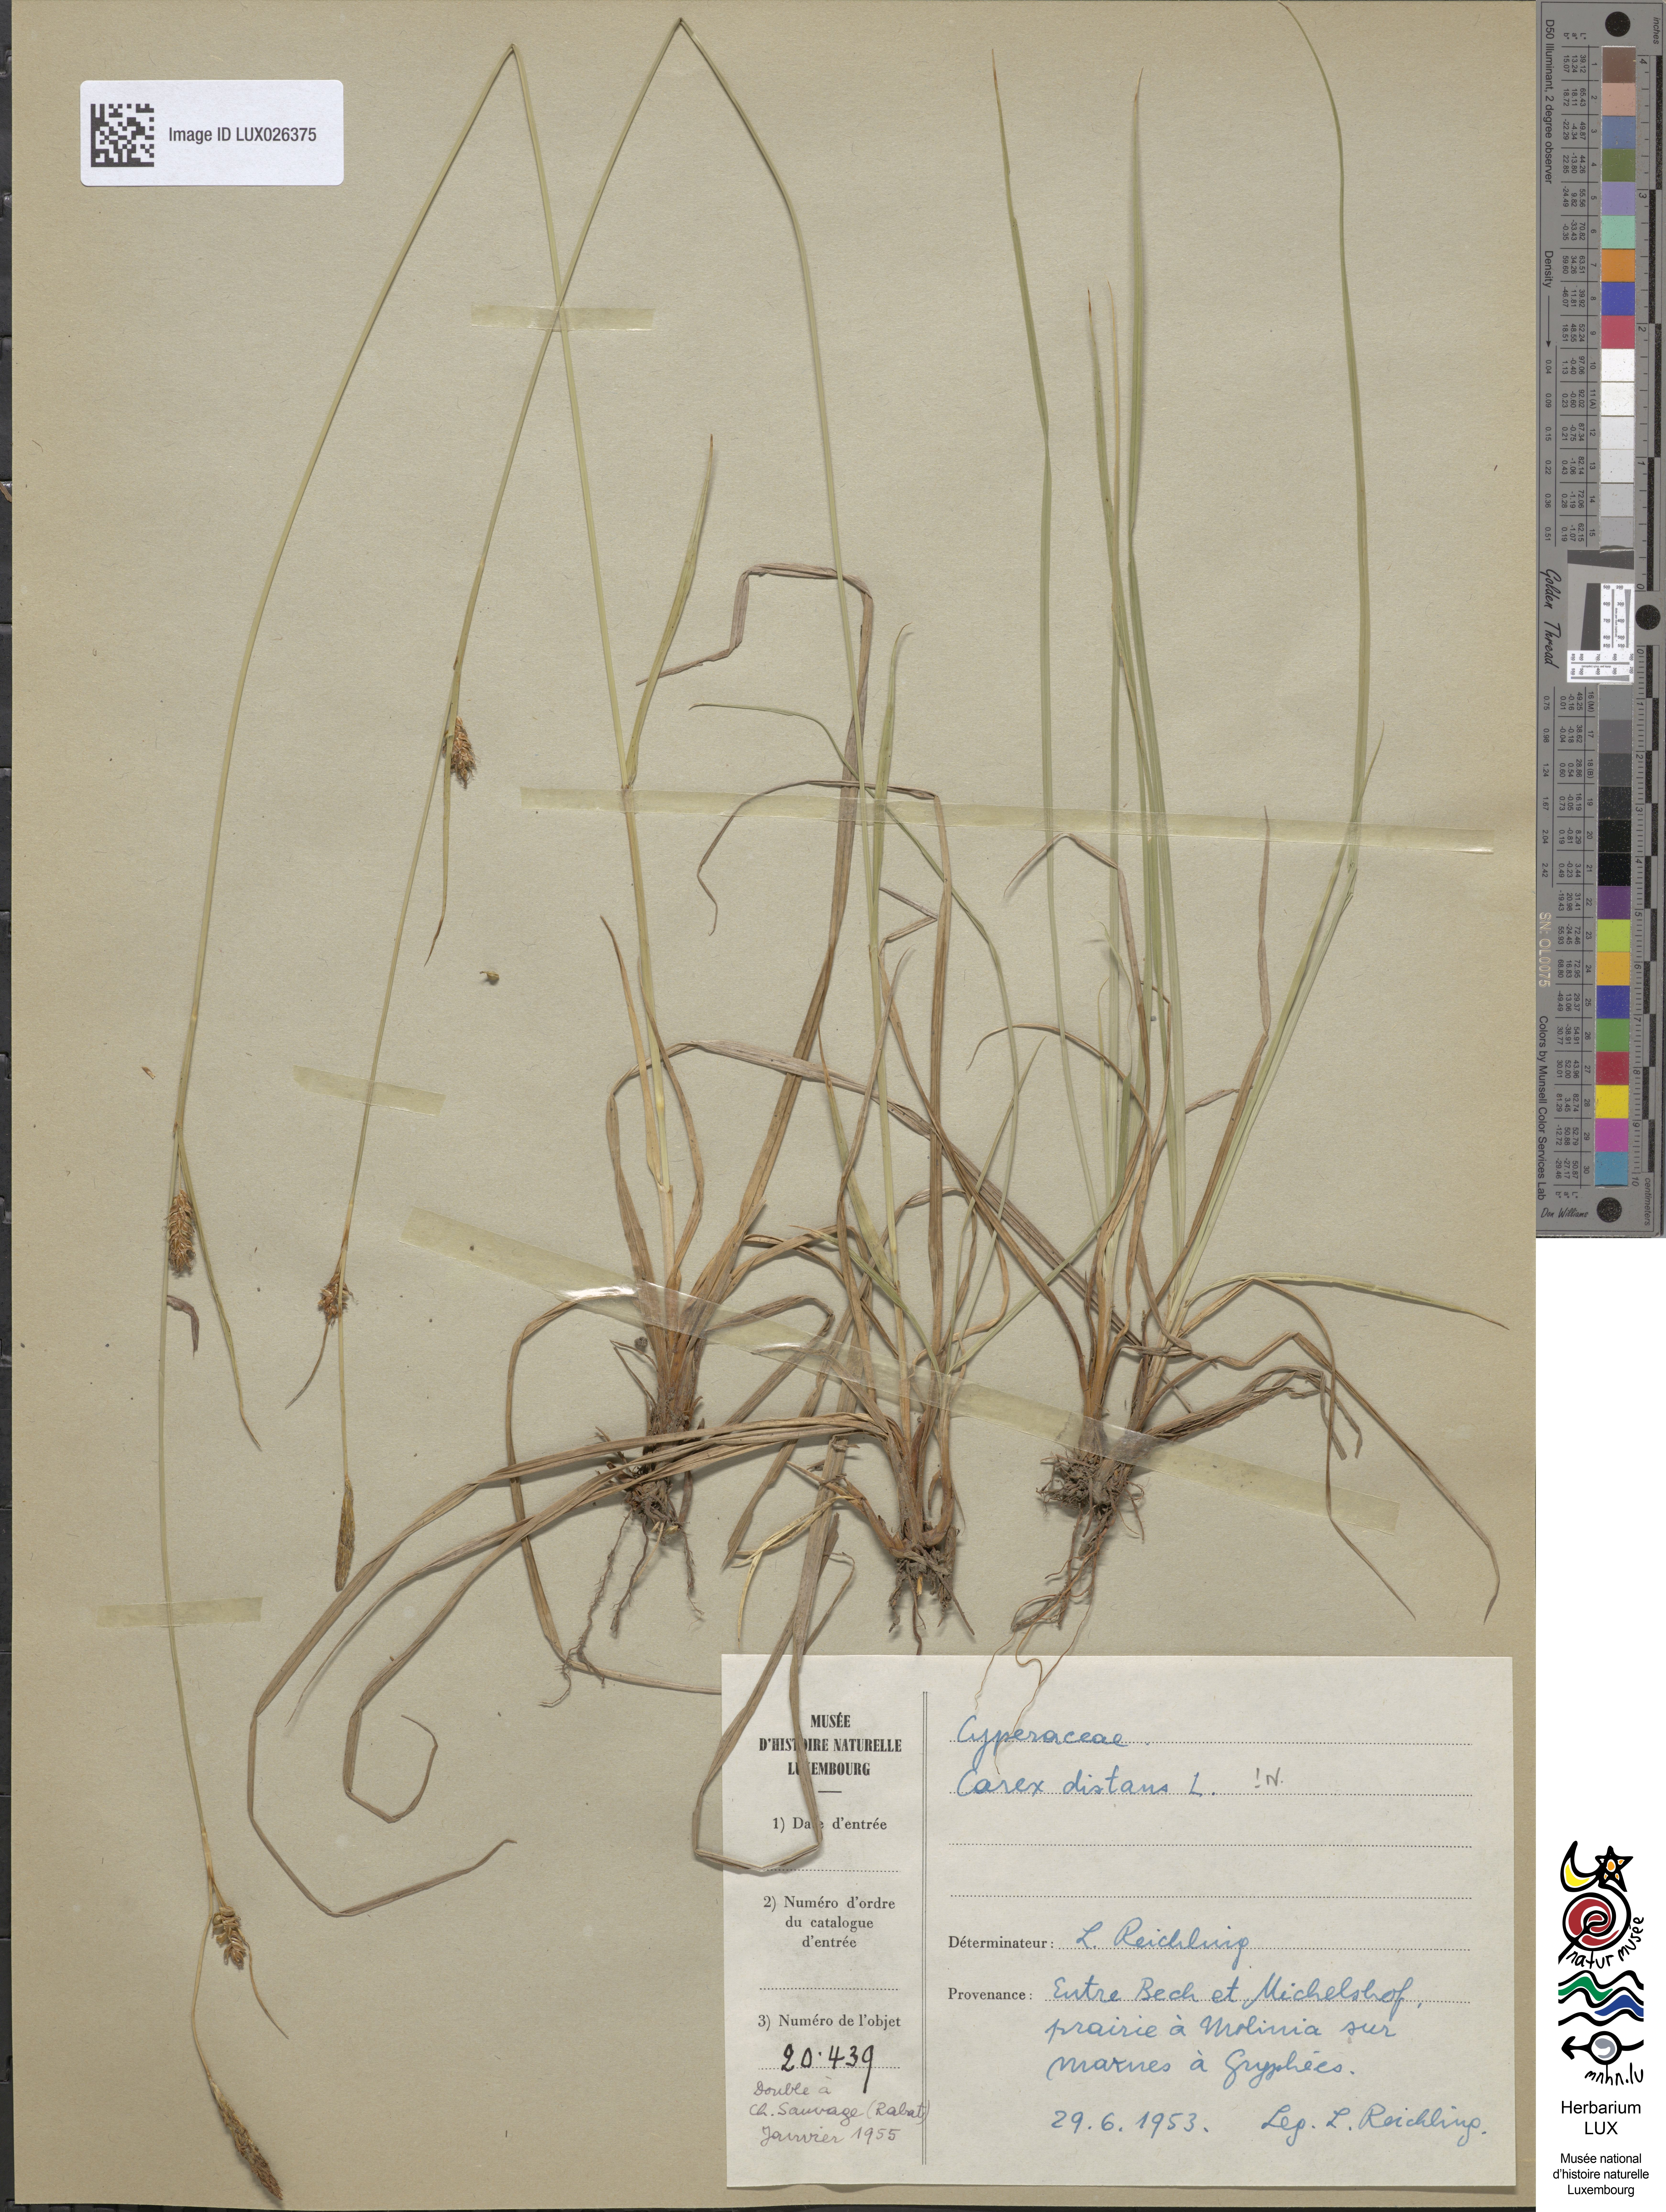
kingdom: Plantae
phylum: Tracheophyta
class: Liliopsida
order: Poales
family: Cyperaceae
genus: Carex
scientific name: Carex distans
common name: Distant sedge
